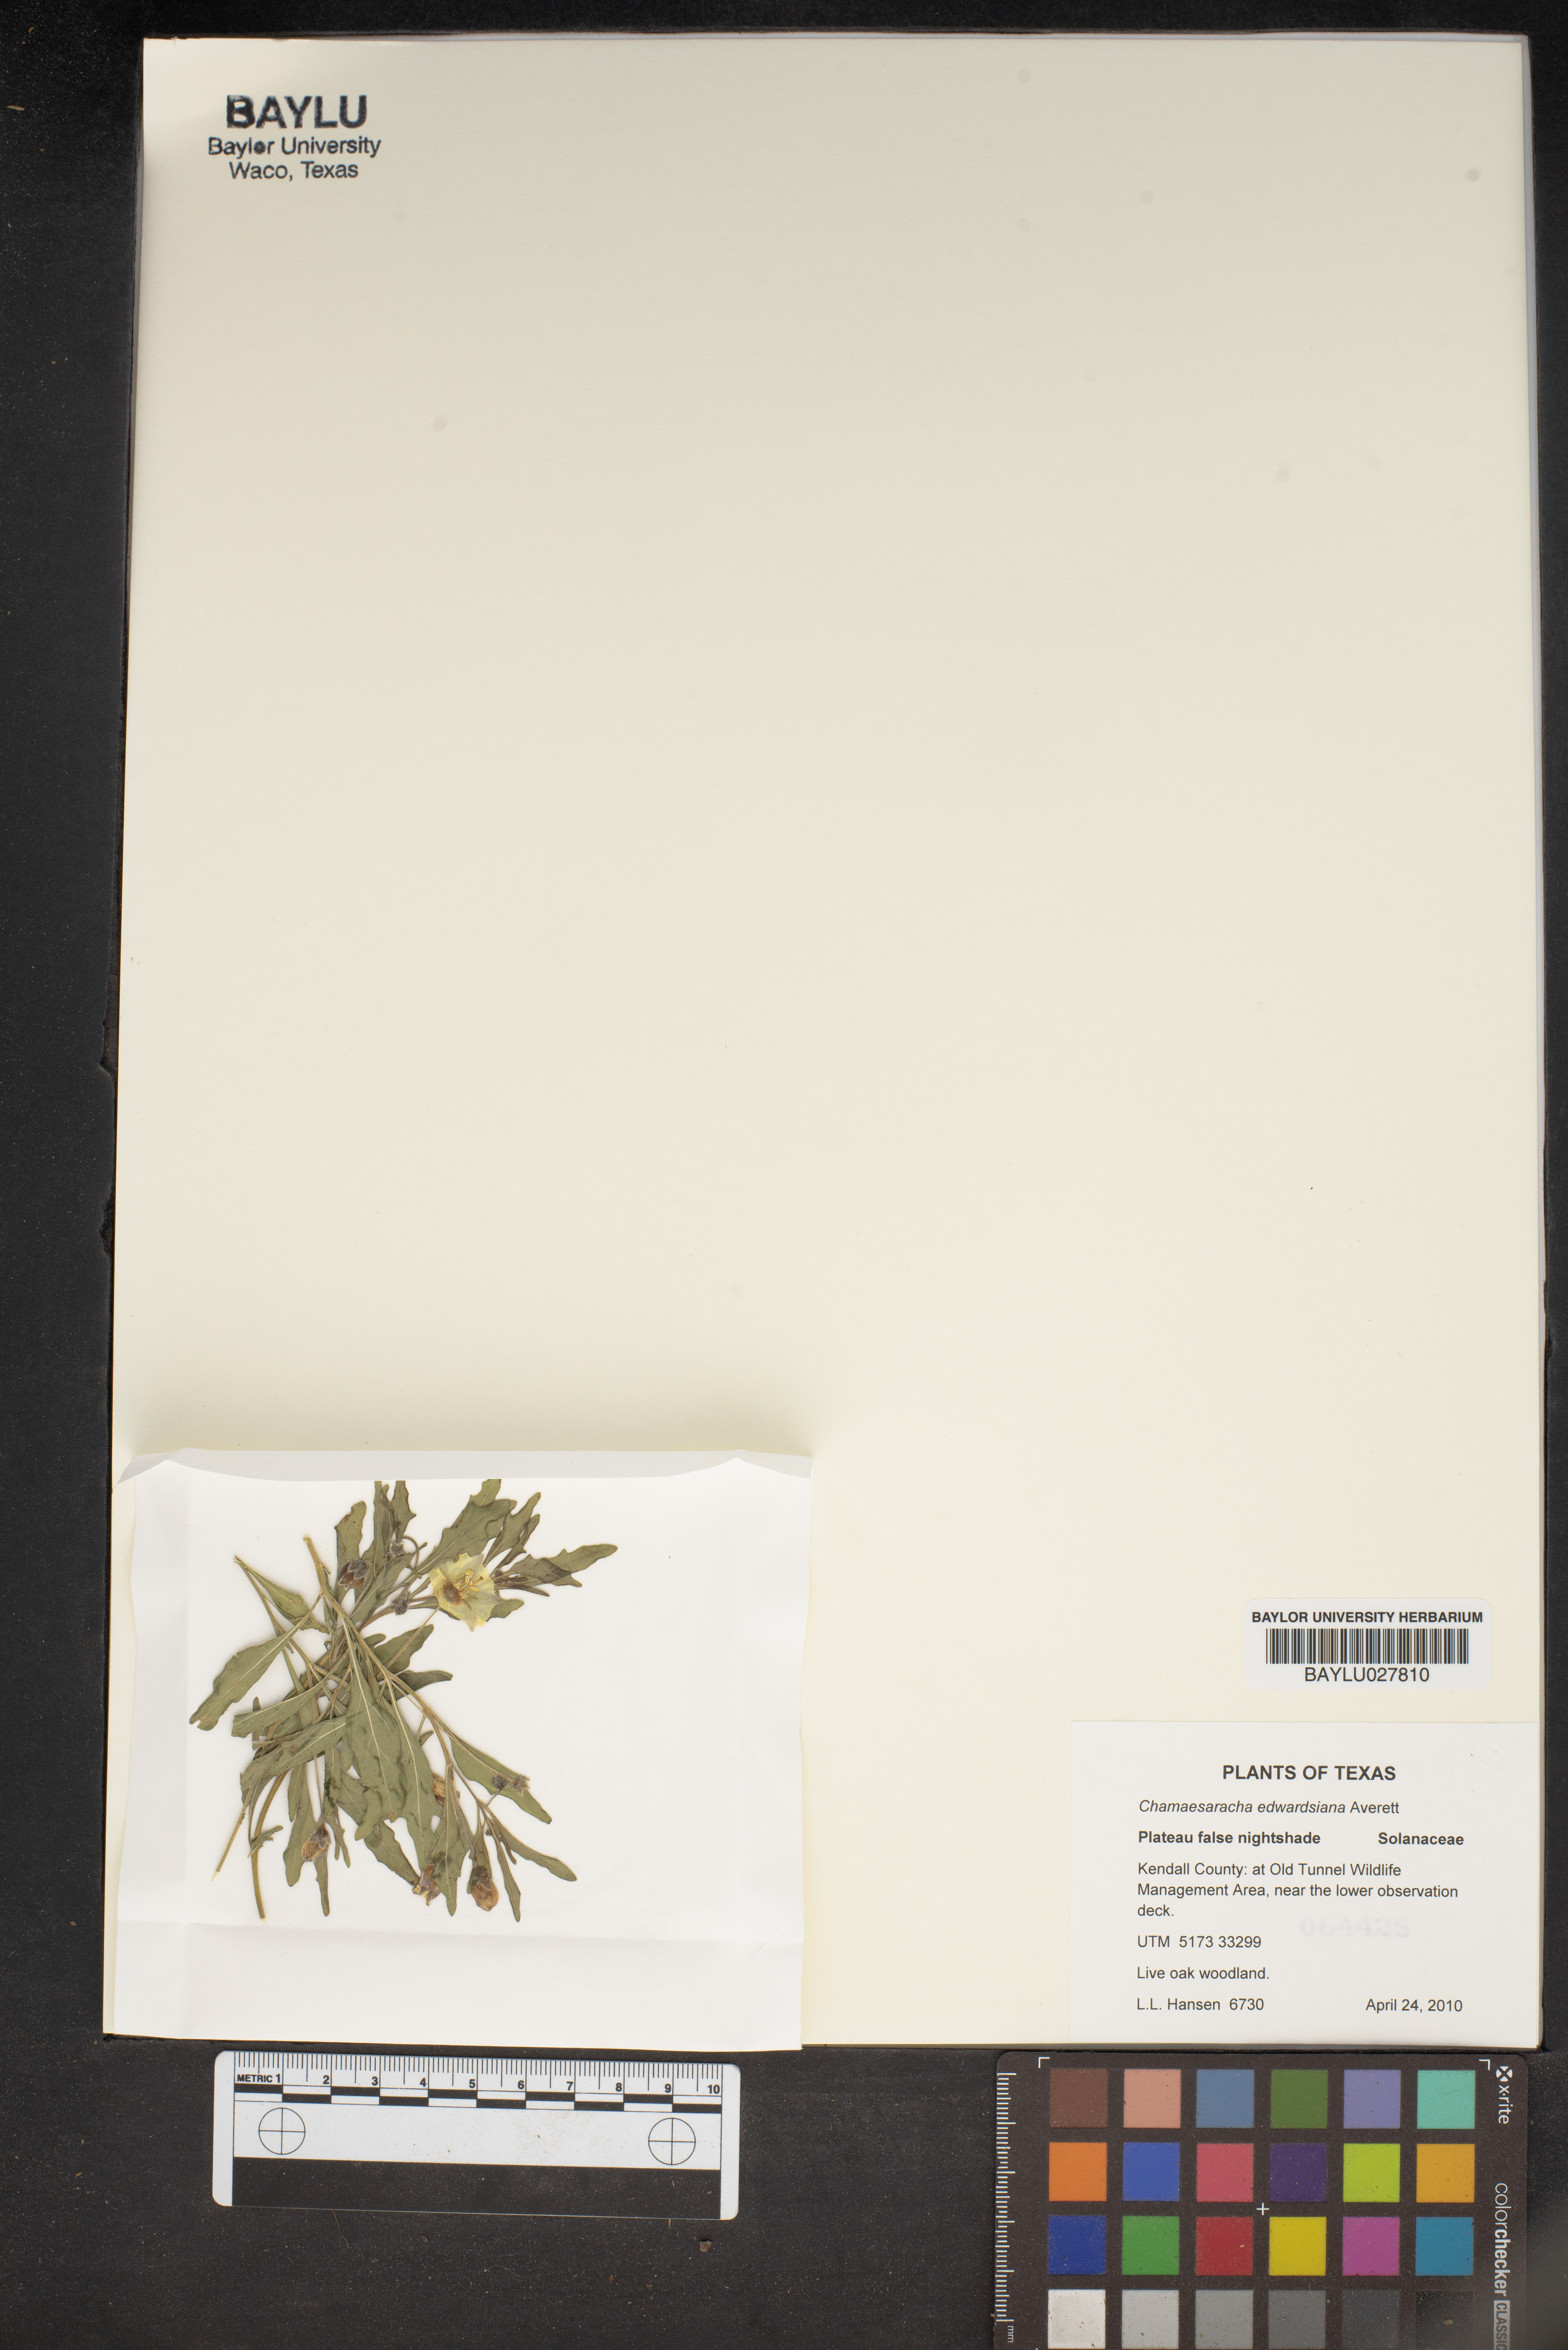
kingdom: Plantae
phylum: Tracheophyta
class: Magnoliopsida
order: Solanales
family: Solanaceae
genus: Chamaesaracha
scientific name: Chamaesaracha edwardsiana
